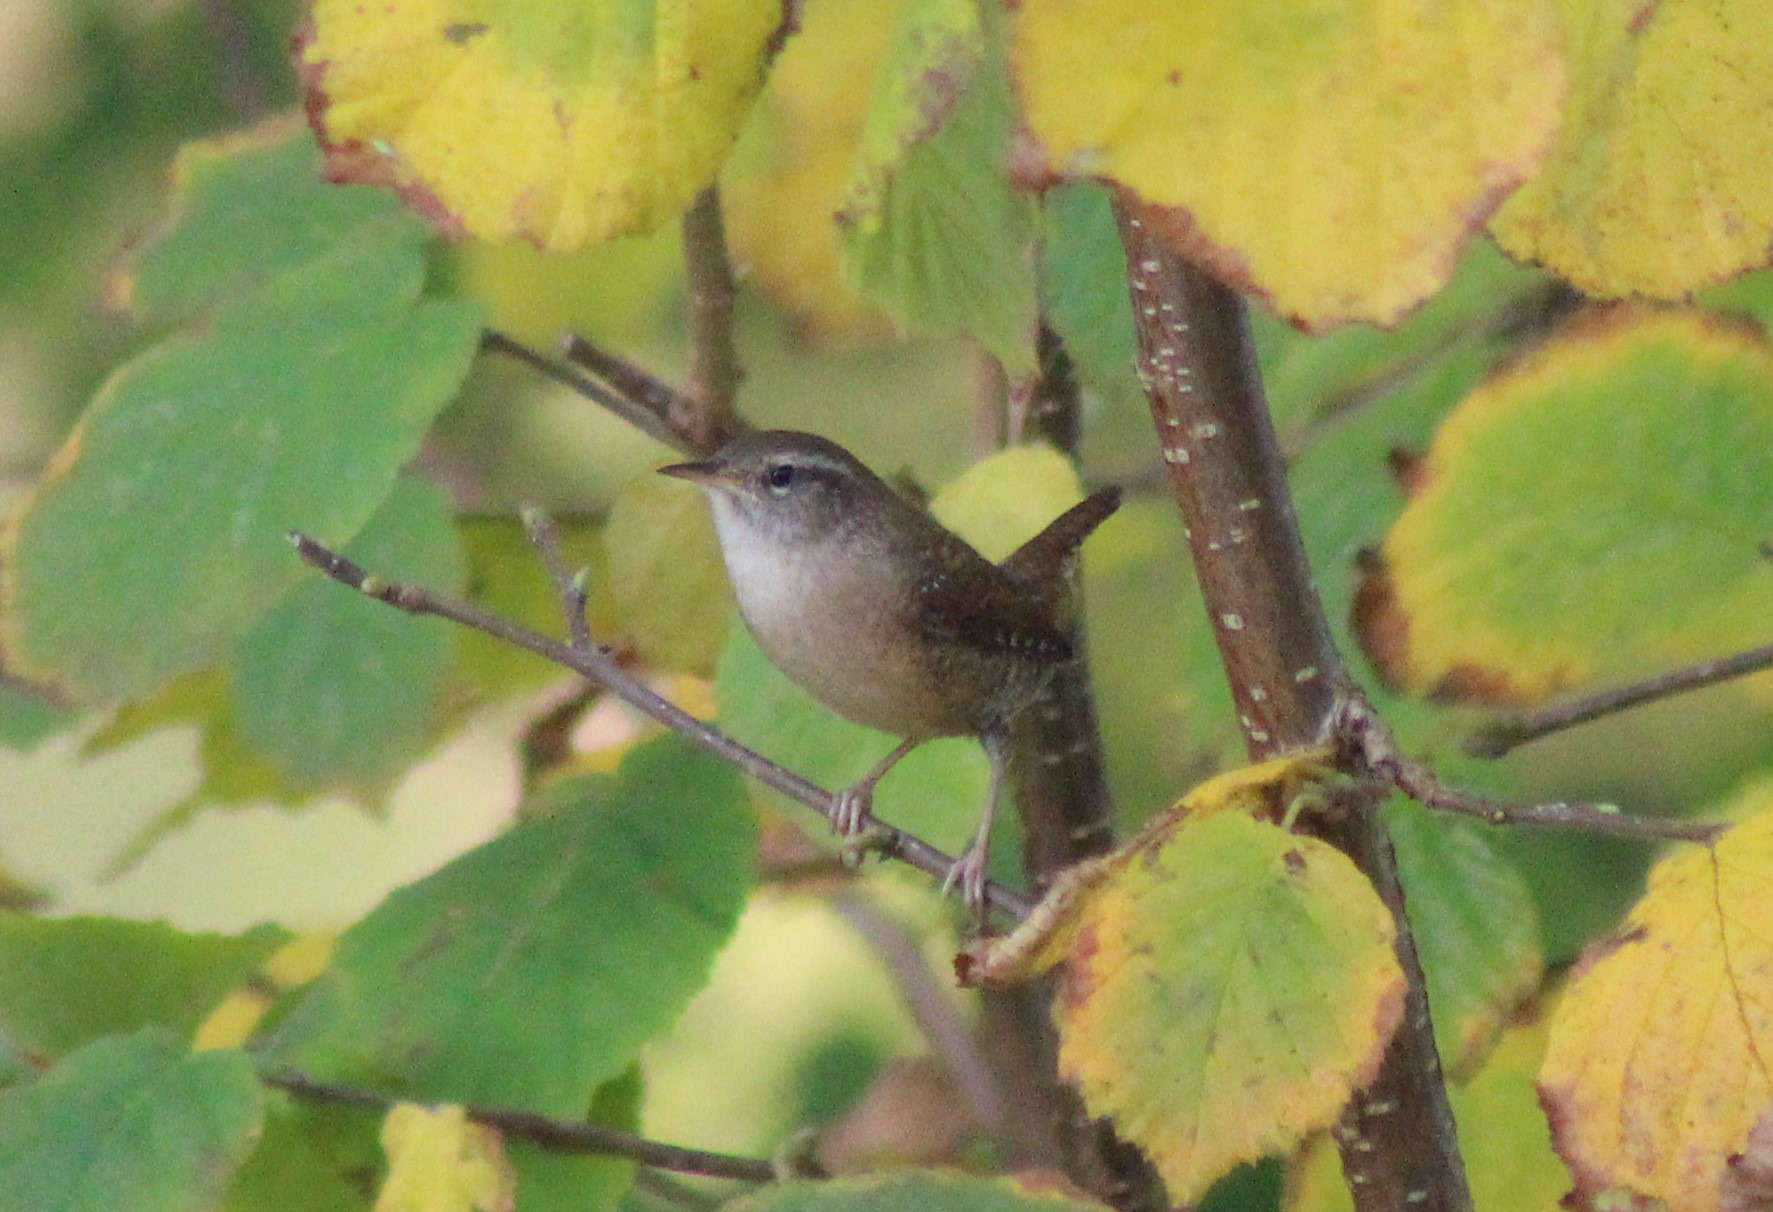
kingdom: Animalia
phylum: Chordata
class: Aves
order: Passeriformes
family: Troglodytidae
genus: Troglodytes
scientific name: Troglodytes troglodytes
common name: Gærdesmutte
